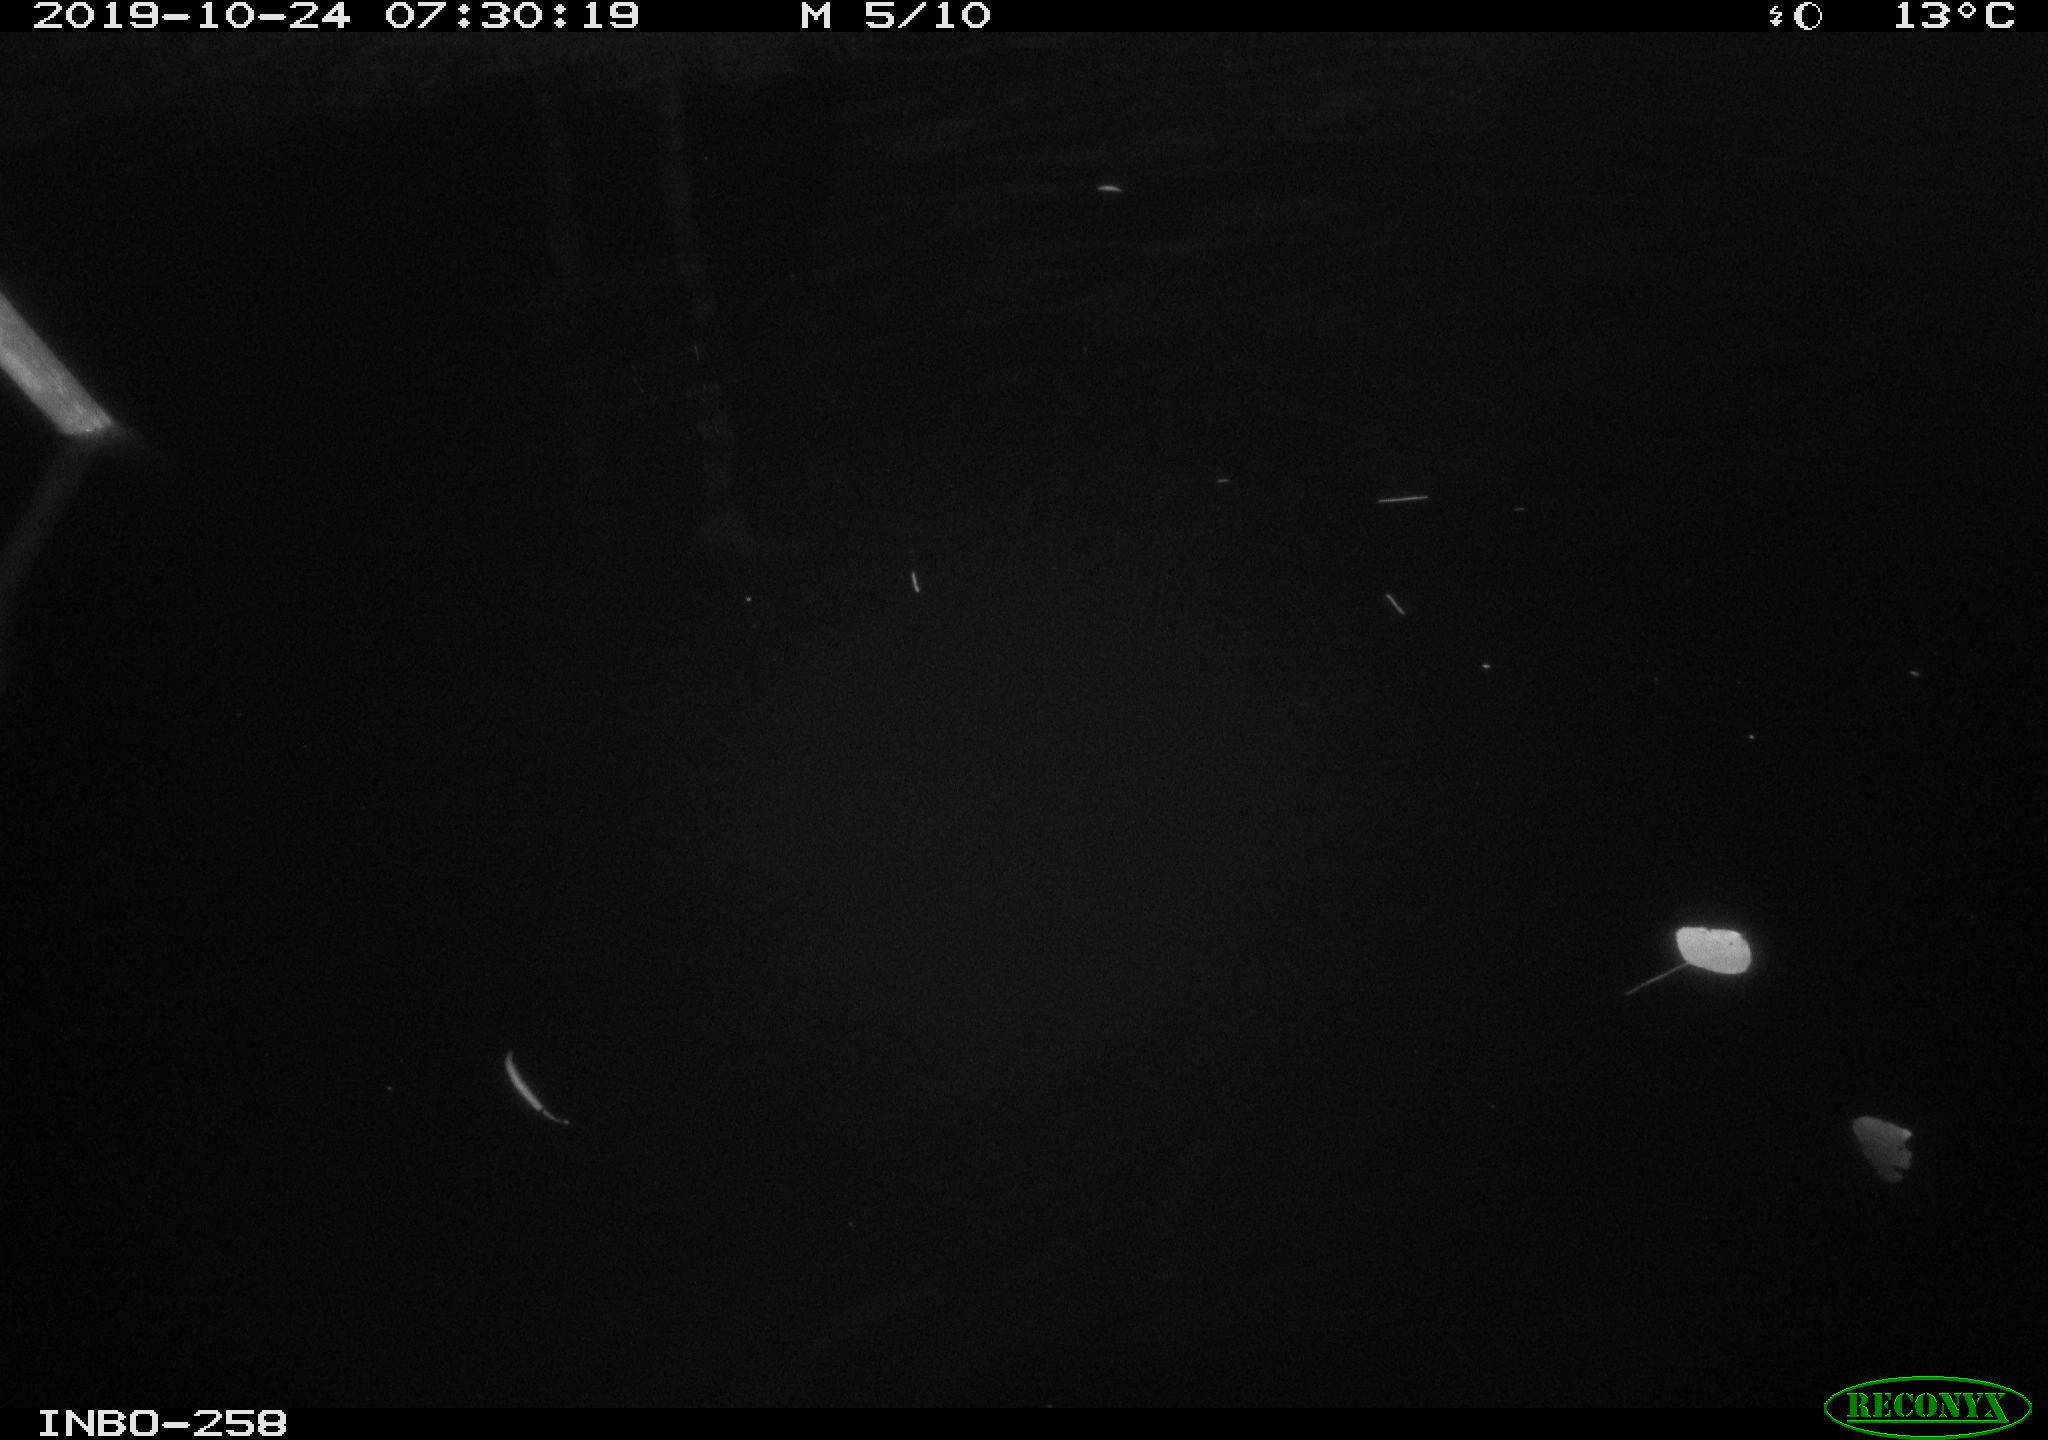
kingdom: Animalia
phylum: Chordata
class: Aves
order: Anseriformes
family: Anatidae
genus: Anas
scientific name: Anas platyrhynchos
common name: Mallard
